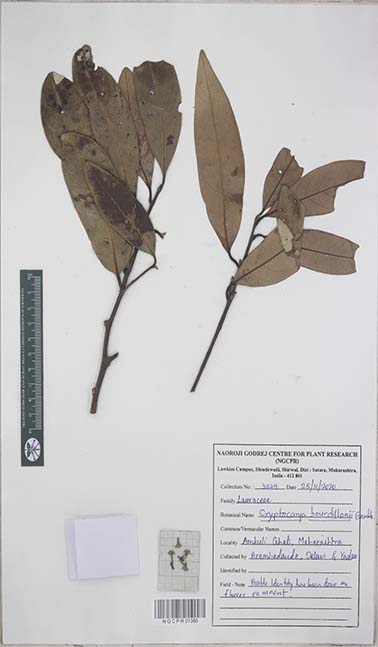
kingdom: Plantae
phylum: Tracheophyta
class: Magnoliopsida
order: Laurales
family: Lauraceae
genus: Cryptocarya
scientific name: Cryptocarya wightiana
